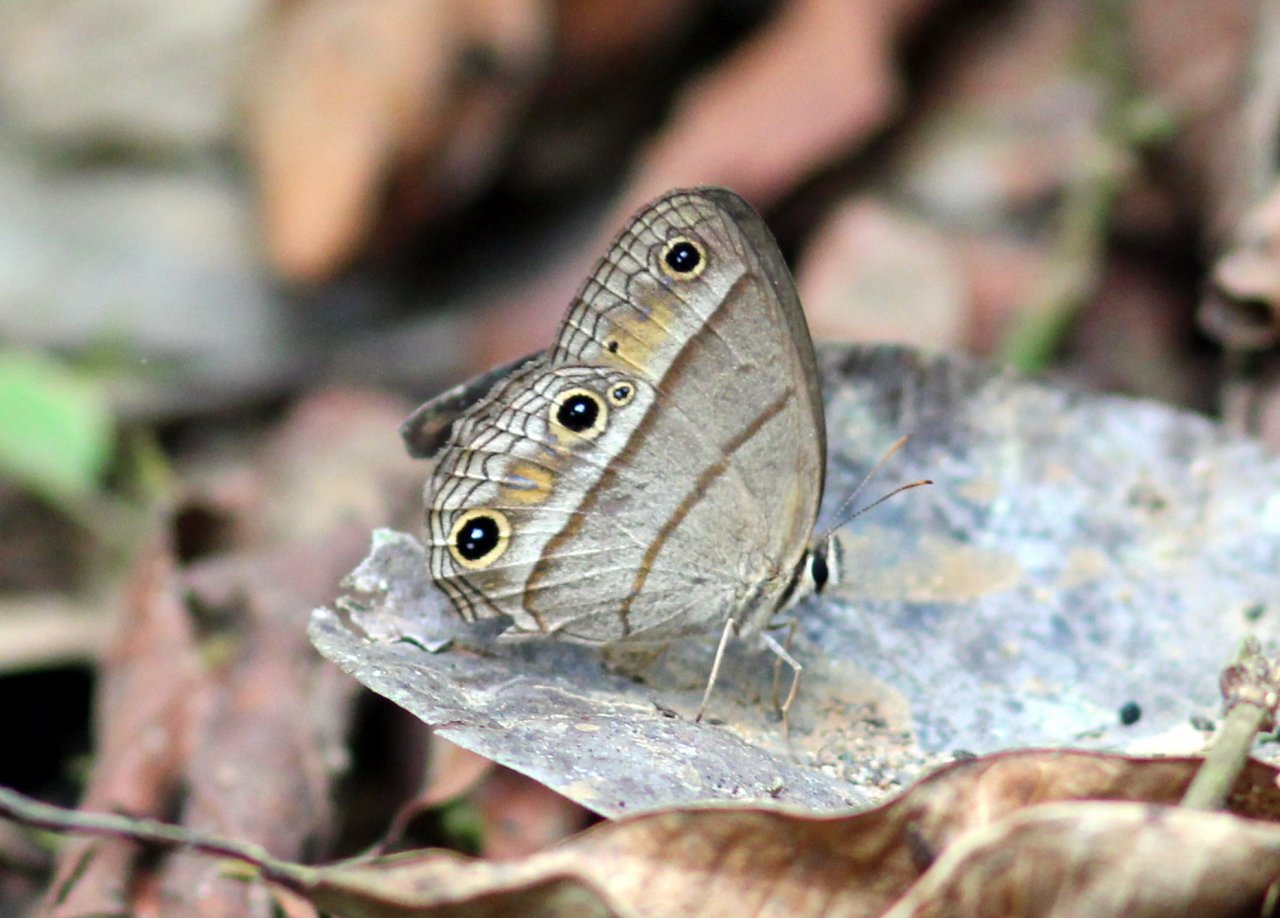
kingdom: Animalia
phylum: Arthropoda
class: Insecta
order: Lepidoptera
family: Nymphalidae
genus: Euptychia
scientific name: Euptychia
